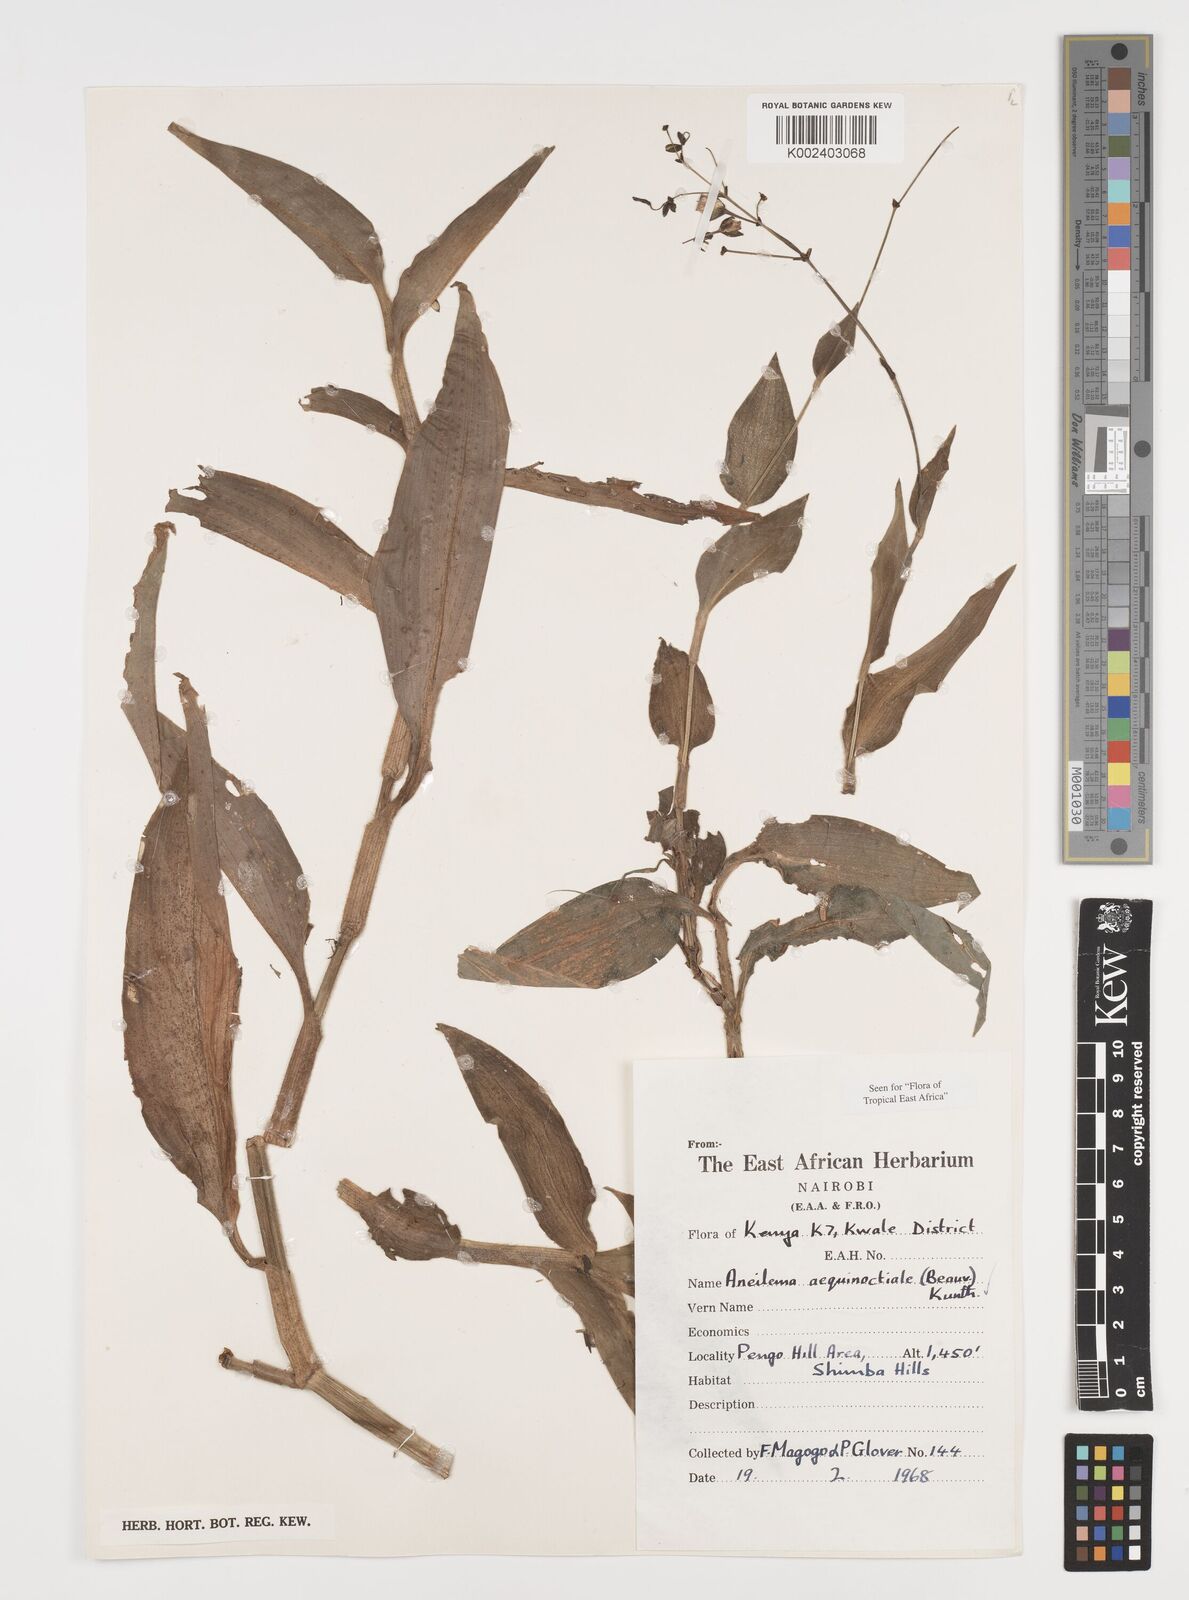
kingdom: Plantae
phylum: Tracheophyta
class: Liliopsida
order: Commelinales
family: Commelinaceae
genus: Aneilema
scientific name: Aneilema aequinoctiale
